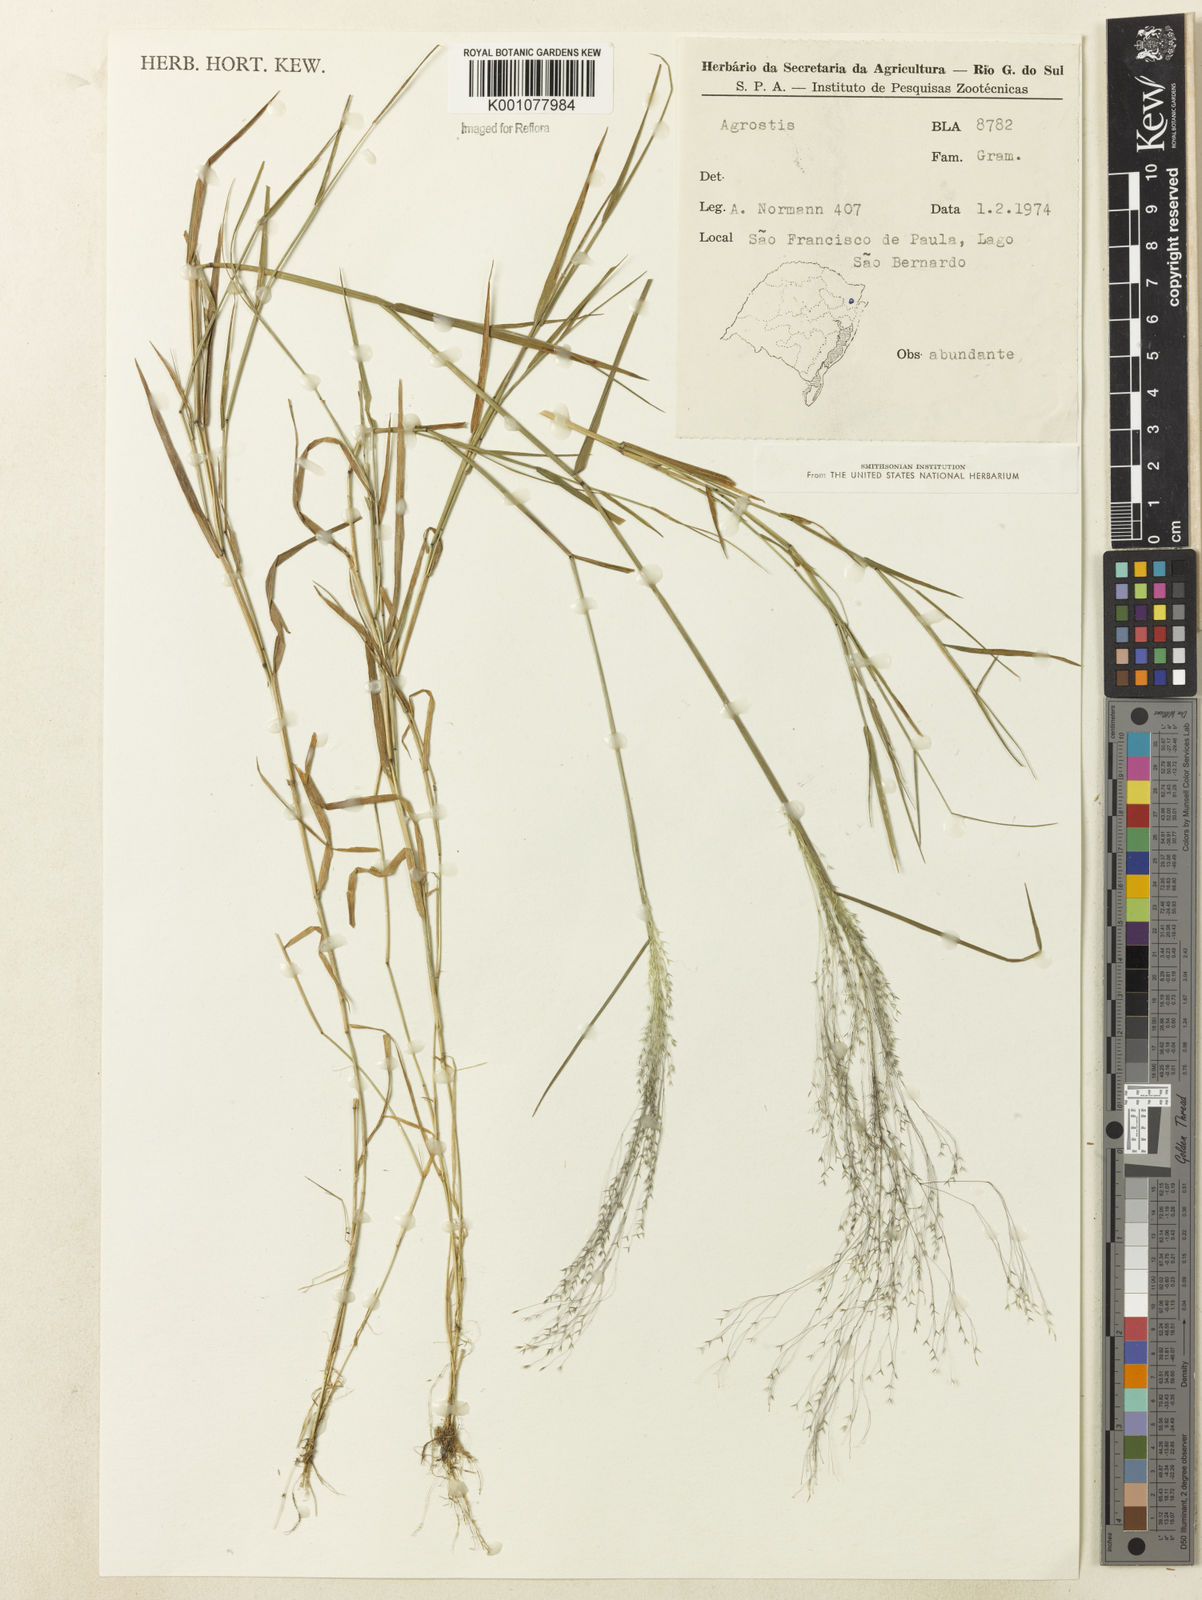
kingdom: Plantae
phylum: Tracheophyta
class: Liliopsida
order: Poales
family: Poaceae
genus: Agrostis
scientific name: Agrostis montevidensis
